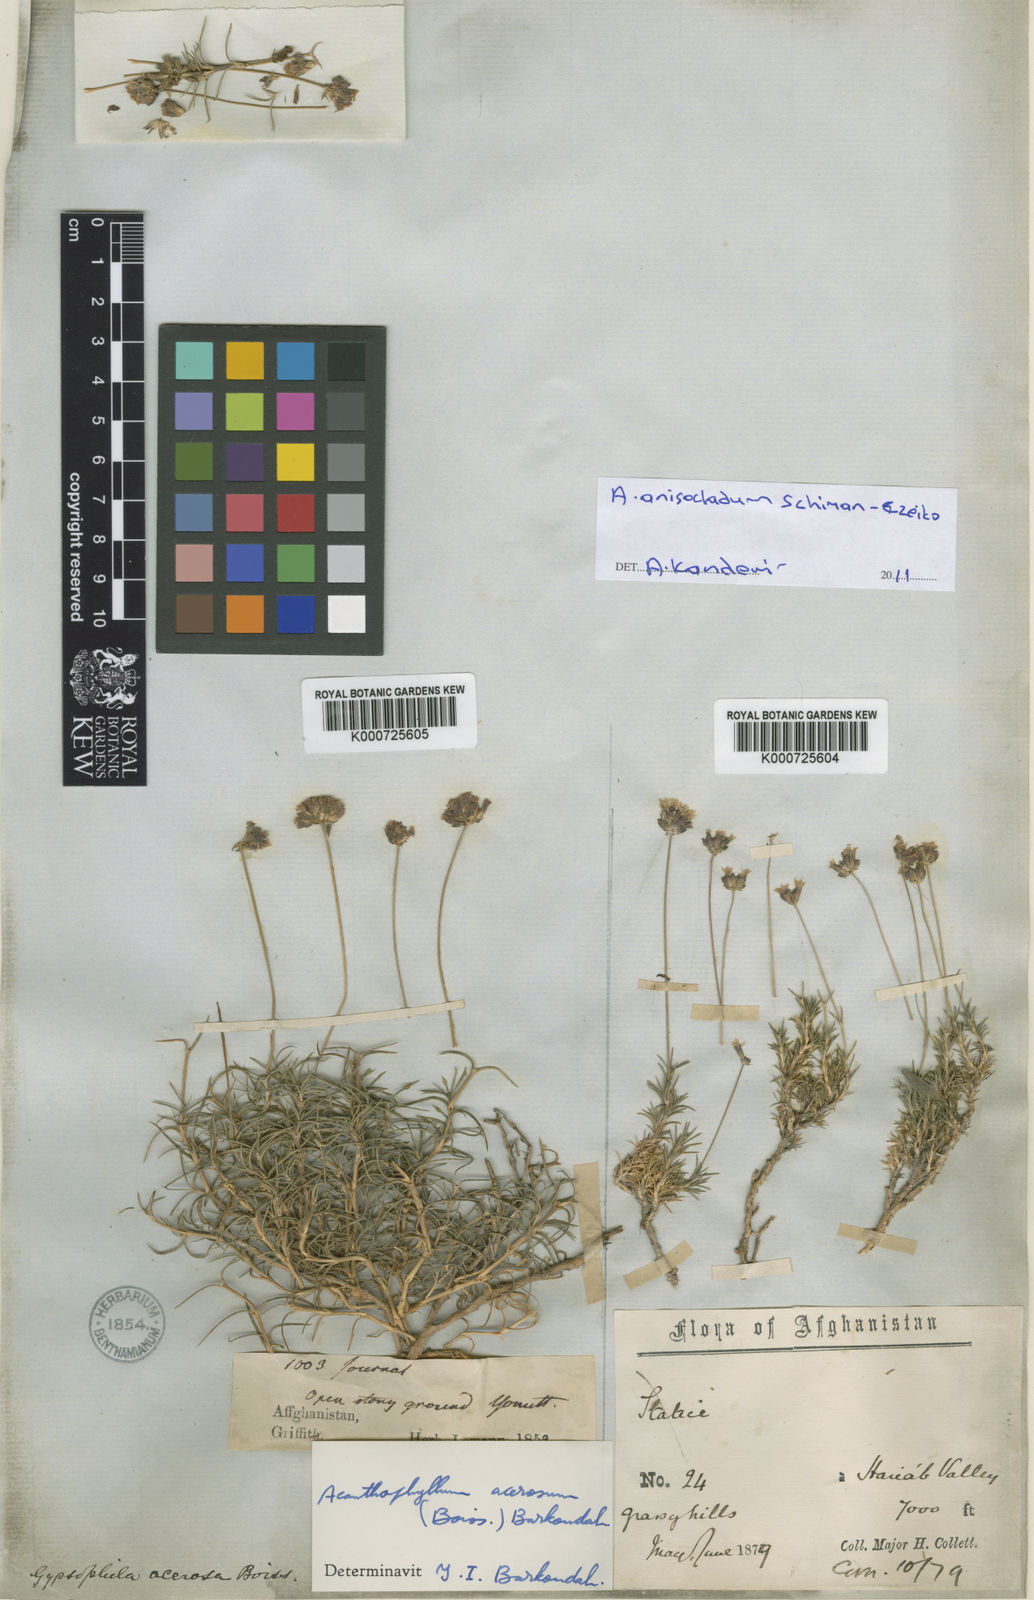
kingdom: Plantae
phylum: Tracheophyta
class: Magnoliopsida
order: Caryophyllales
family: Caryophyllaceae
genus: Acanthophyllum
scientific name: Acanthophyllum
